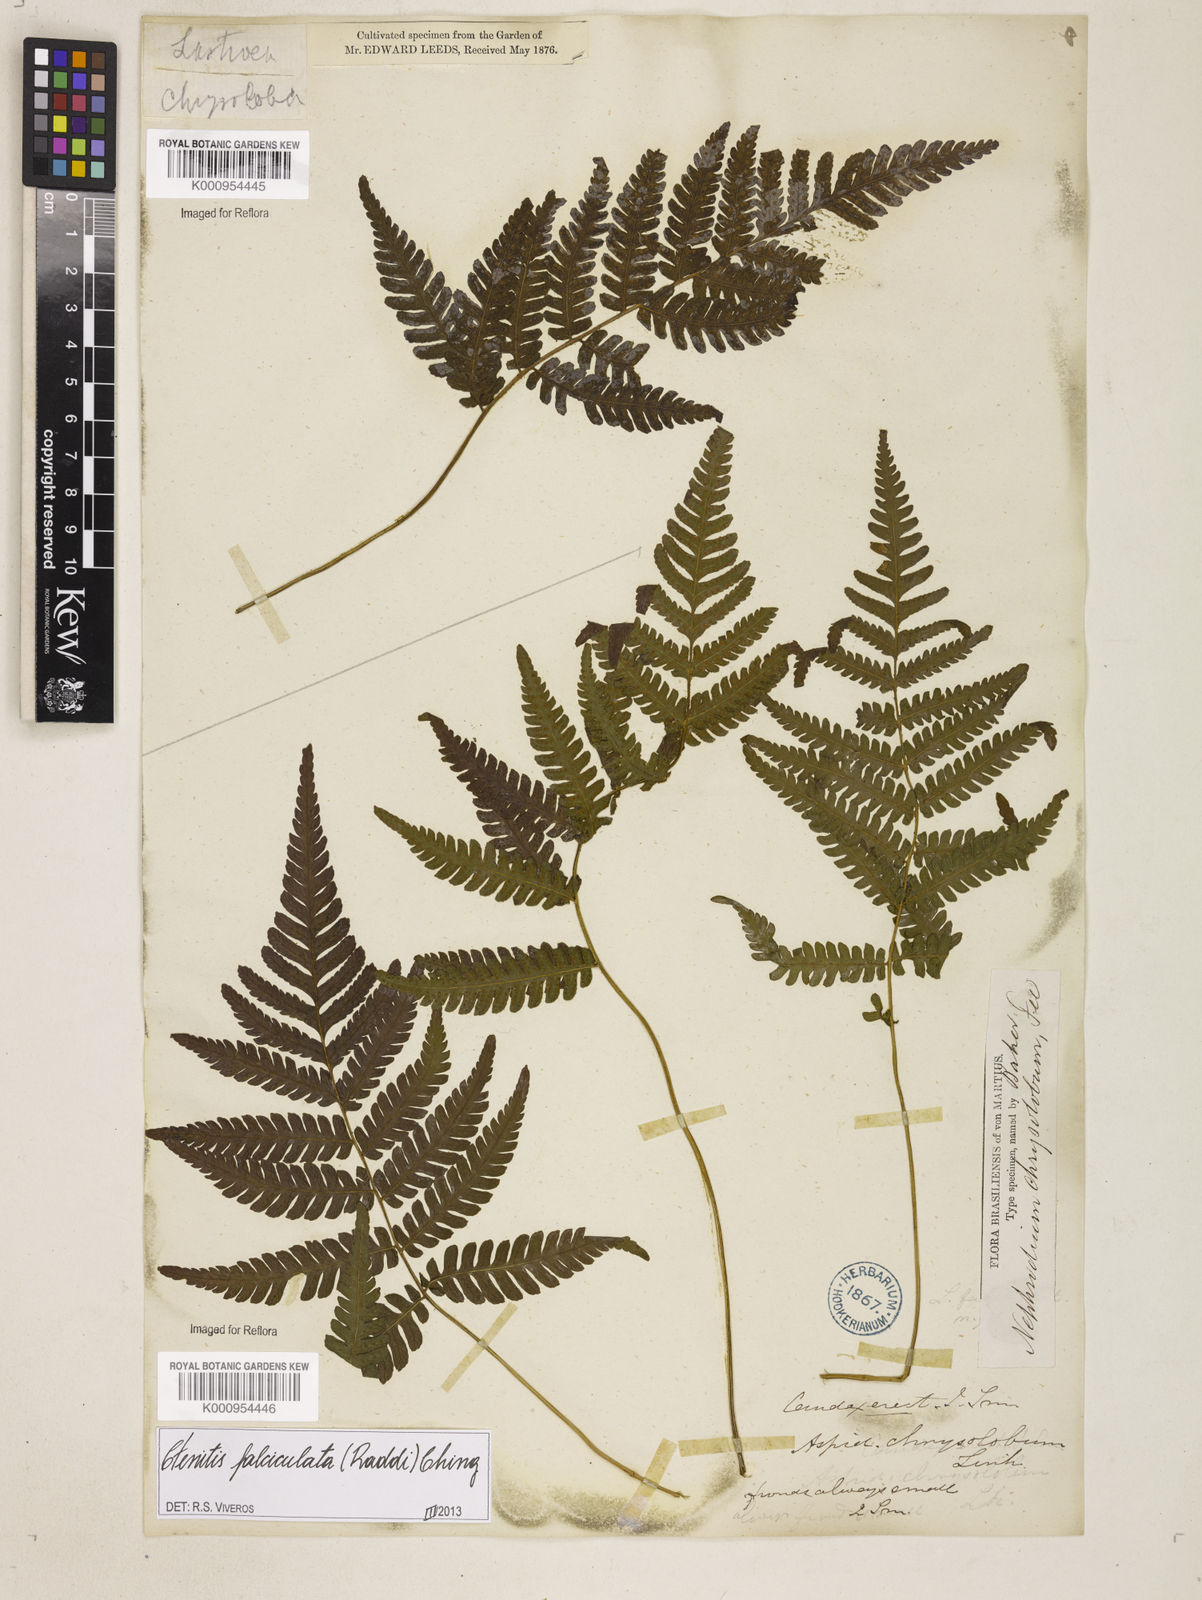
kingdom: Plantae
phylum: Tracheophyta
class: Polypodiopsida
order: Polypodiales
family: Dryopteridaceae
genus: Ctenitis
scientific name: Ctenitis falciculata
